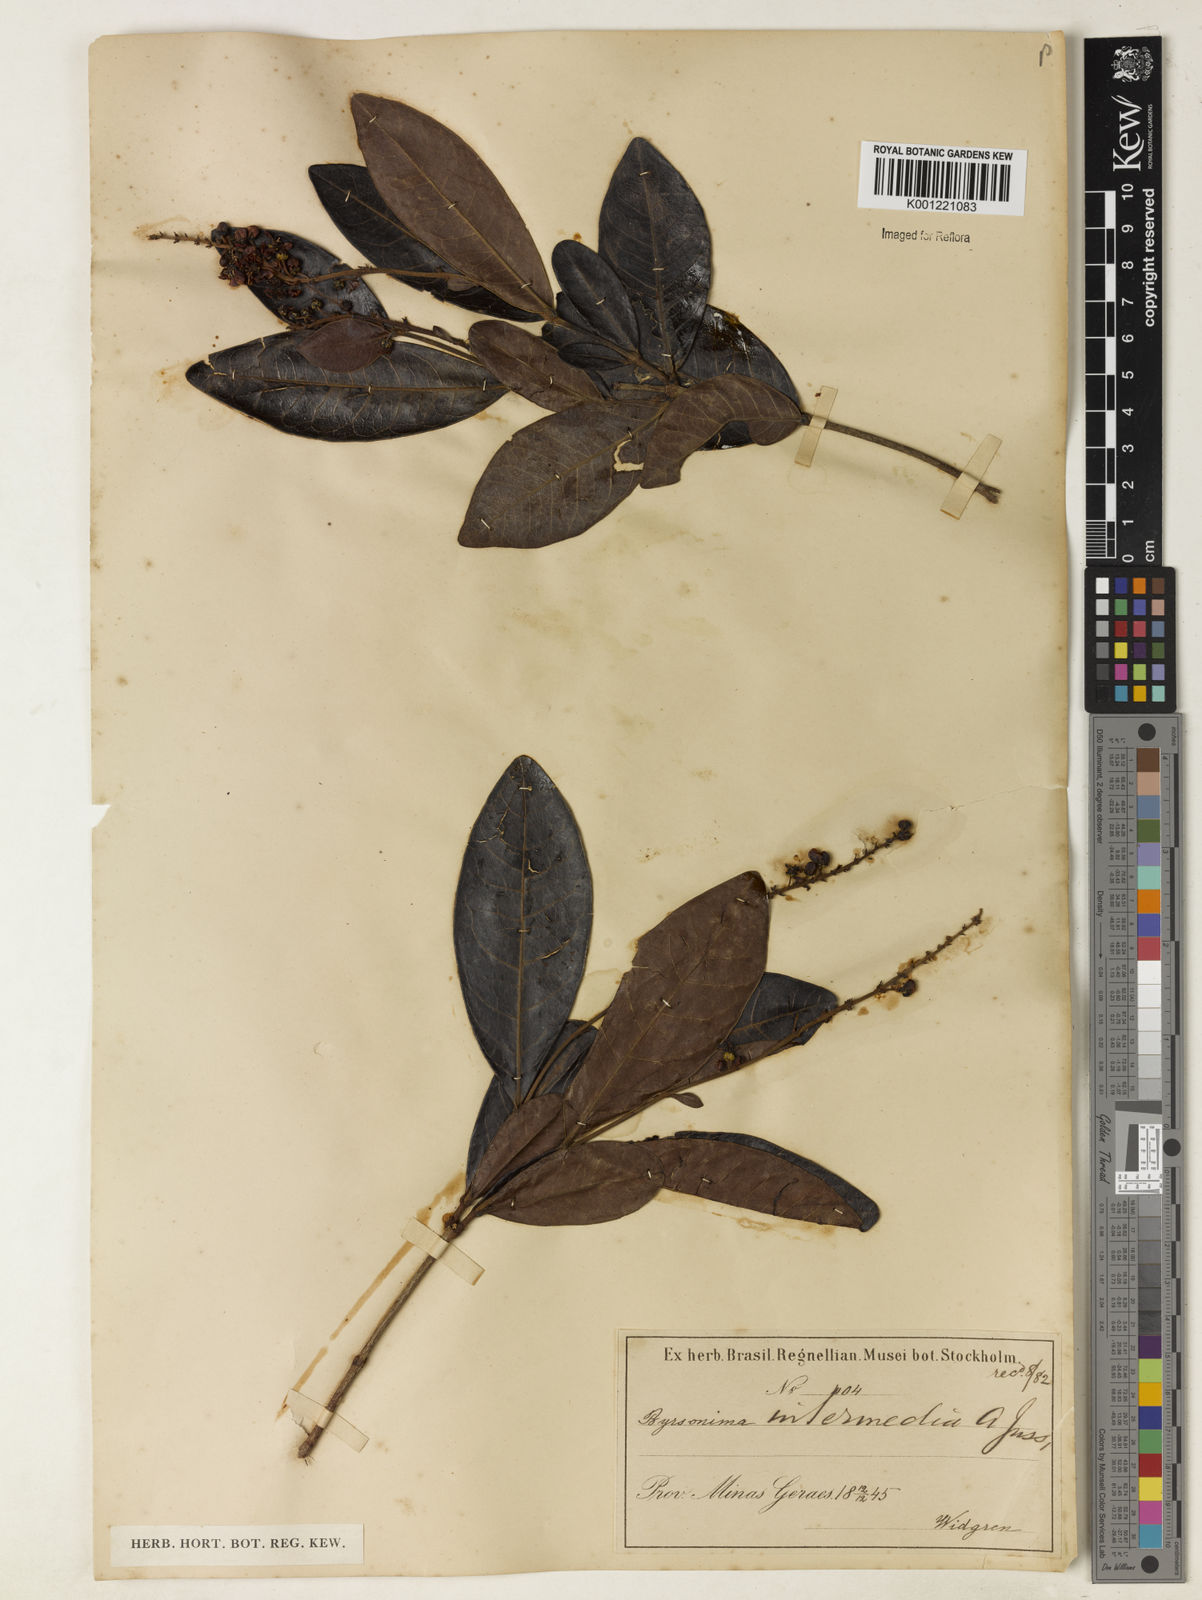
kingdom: Plantae
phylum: Tracheophyta
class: Magnoliopsida
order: Malpighiales
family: Malpighiaceae
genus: Byrsonima
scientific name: Byrsonima intermedia
